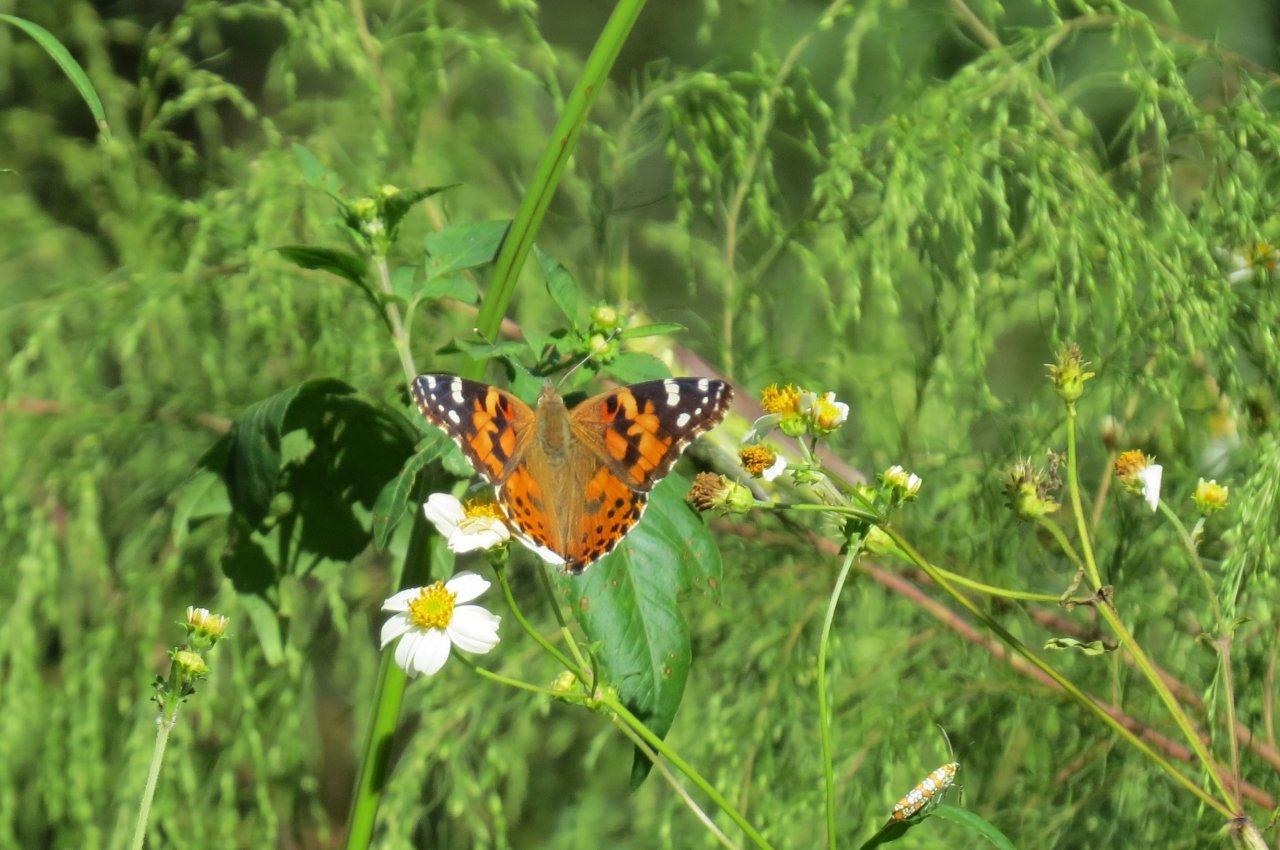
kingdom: Animalia
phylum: Arthropoda
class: Insecta
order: Lepidoptera
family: Nymphalidae
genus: Vanessa
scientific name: Vanessa cardui
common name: Painted Lady
